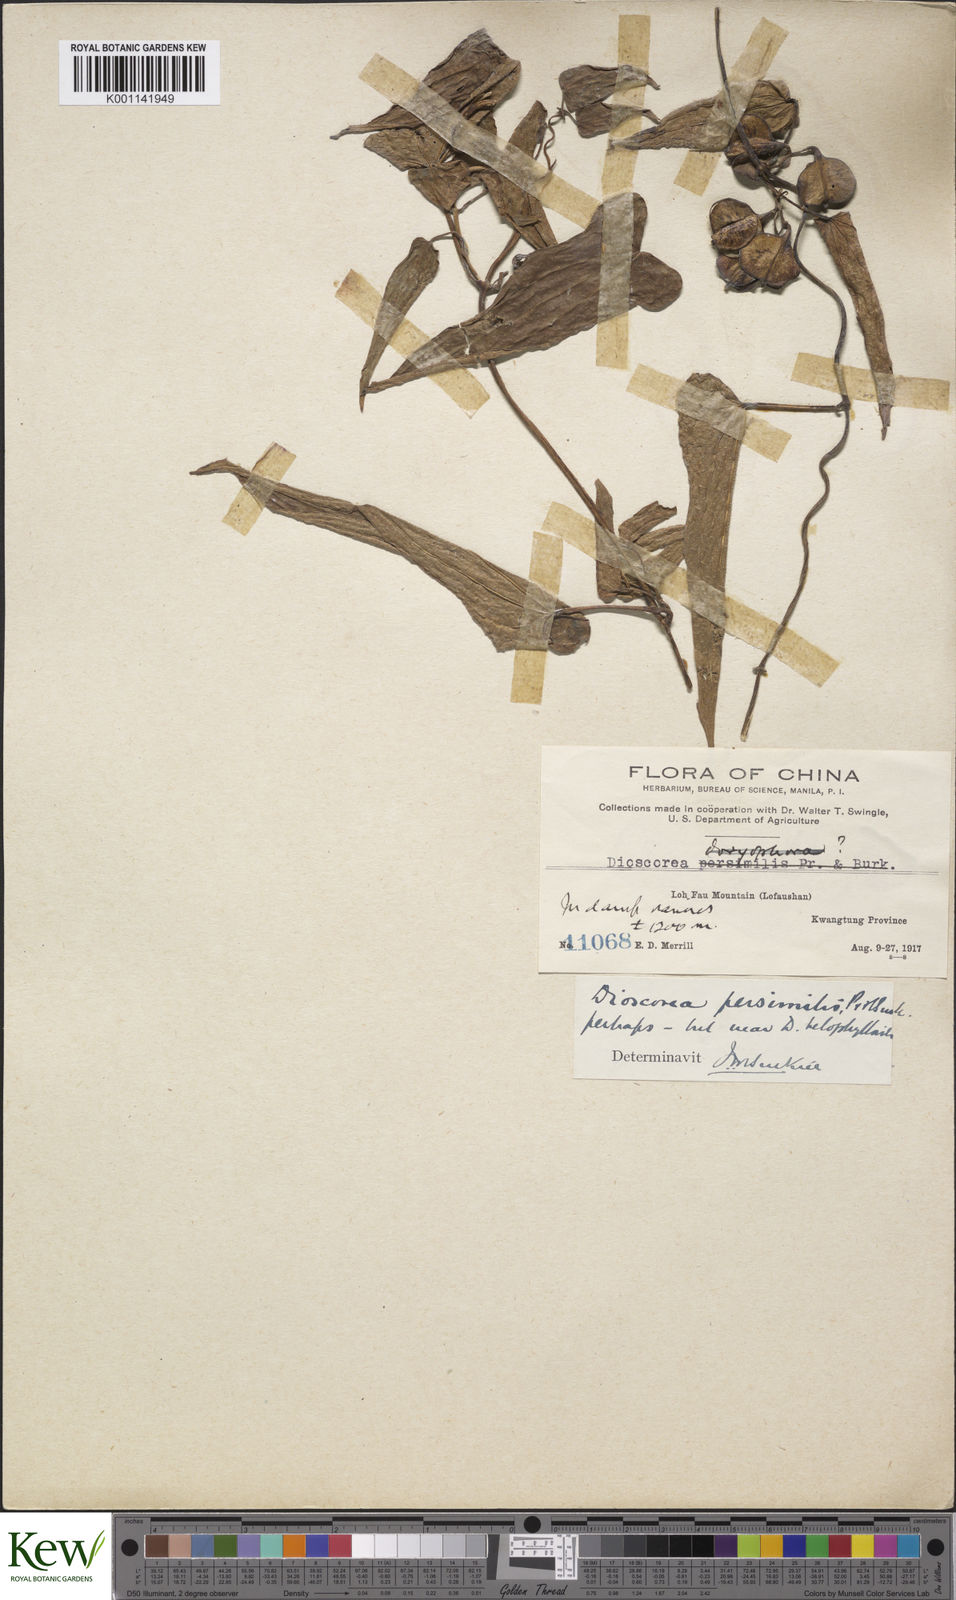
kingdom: Plantae
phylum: Tracheophyta
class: Liliopsida
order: Dioscoreales
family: Dioscoreaceae
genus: Dioscorea
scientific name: Dioscorea hamiltonii
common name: Mountain yam
